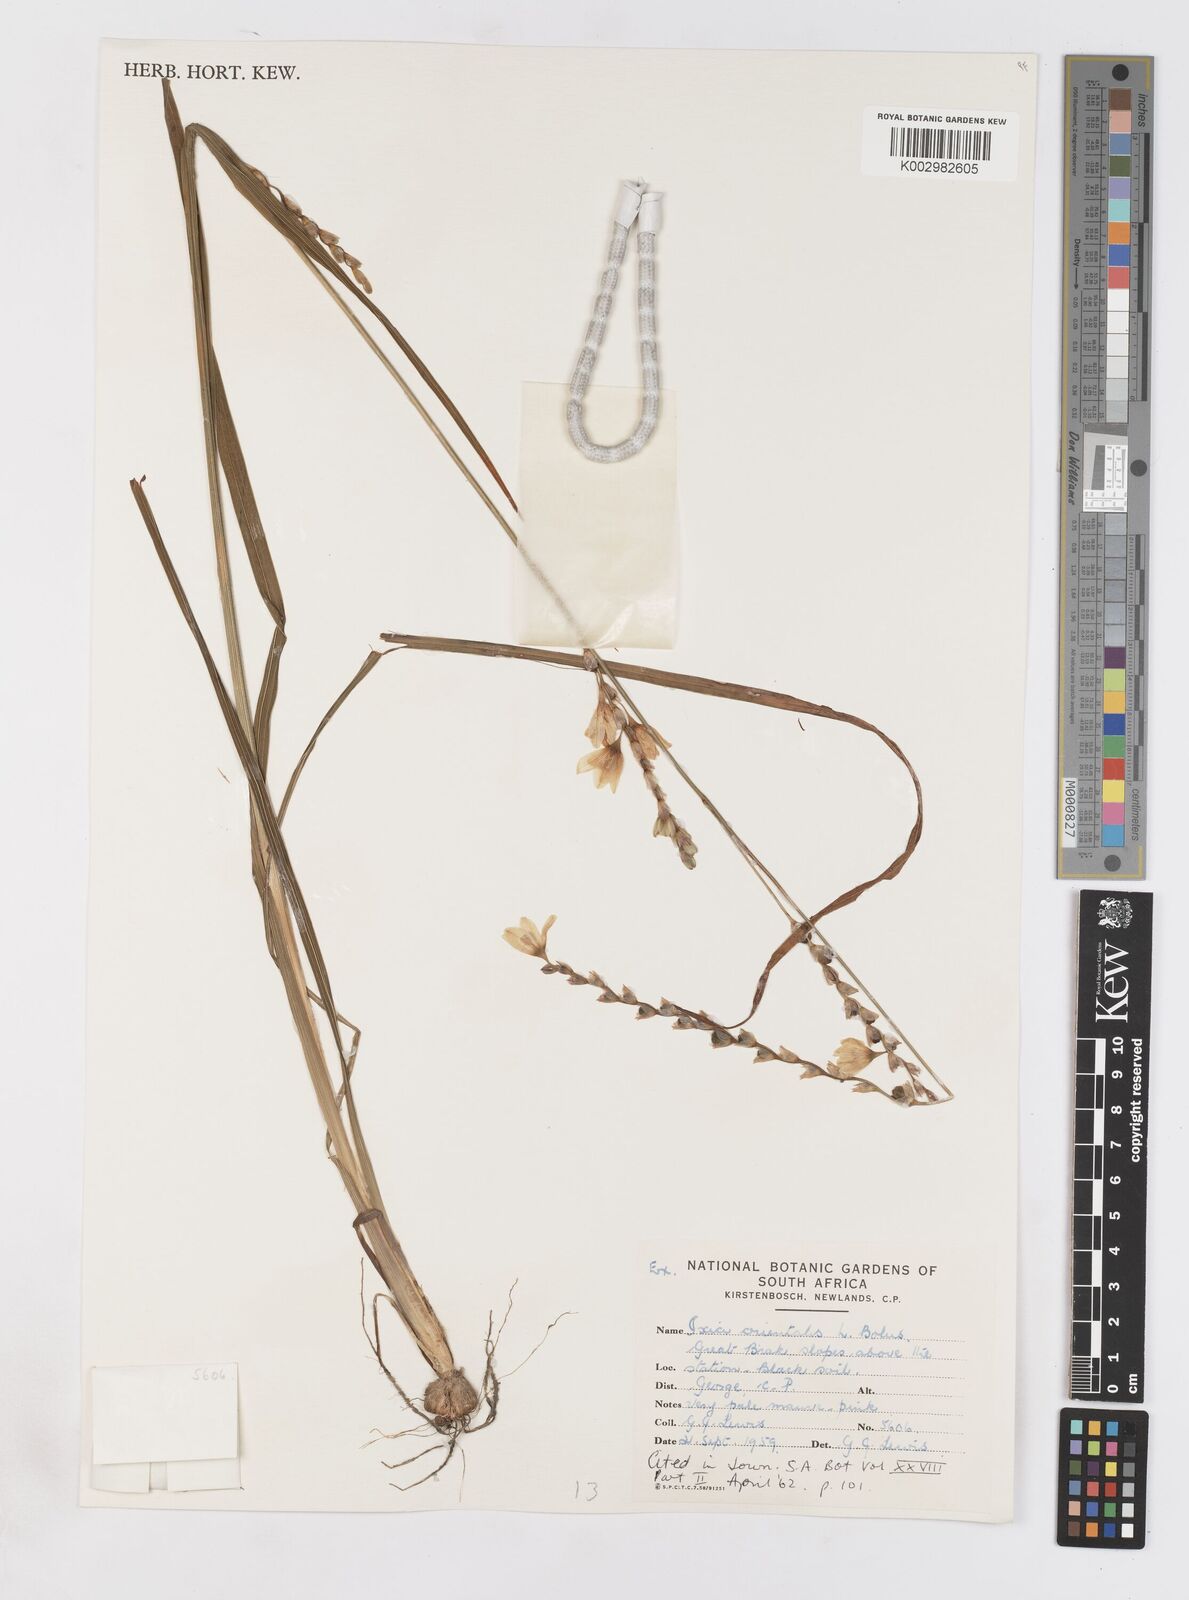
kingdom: Plantae
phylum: Tracheophyta
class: Liliopsida
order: Asparagales
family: Iridaceae
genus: Ixia
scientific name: Ixia orientalis
